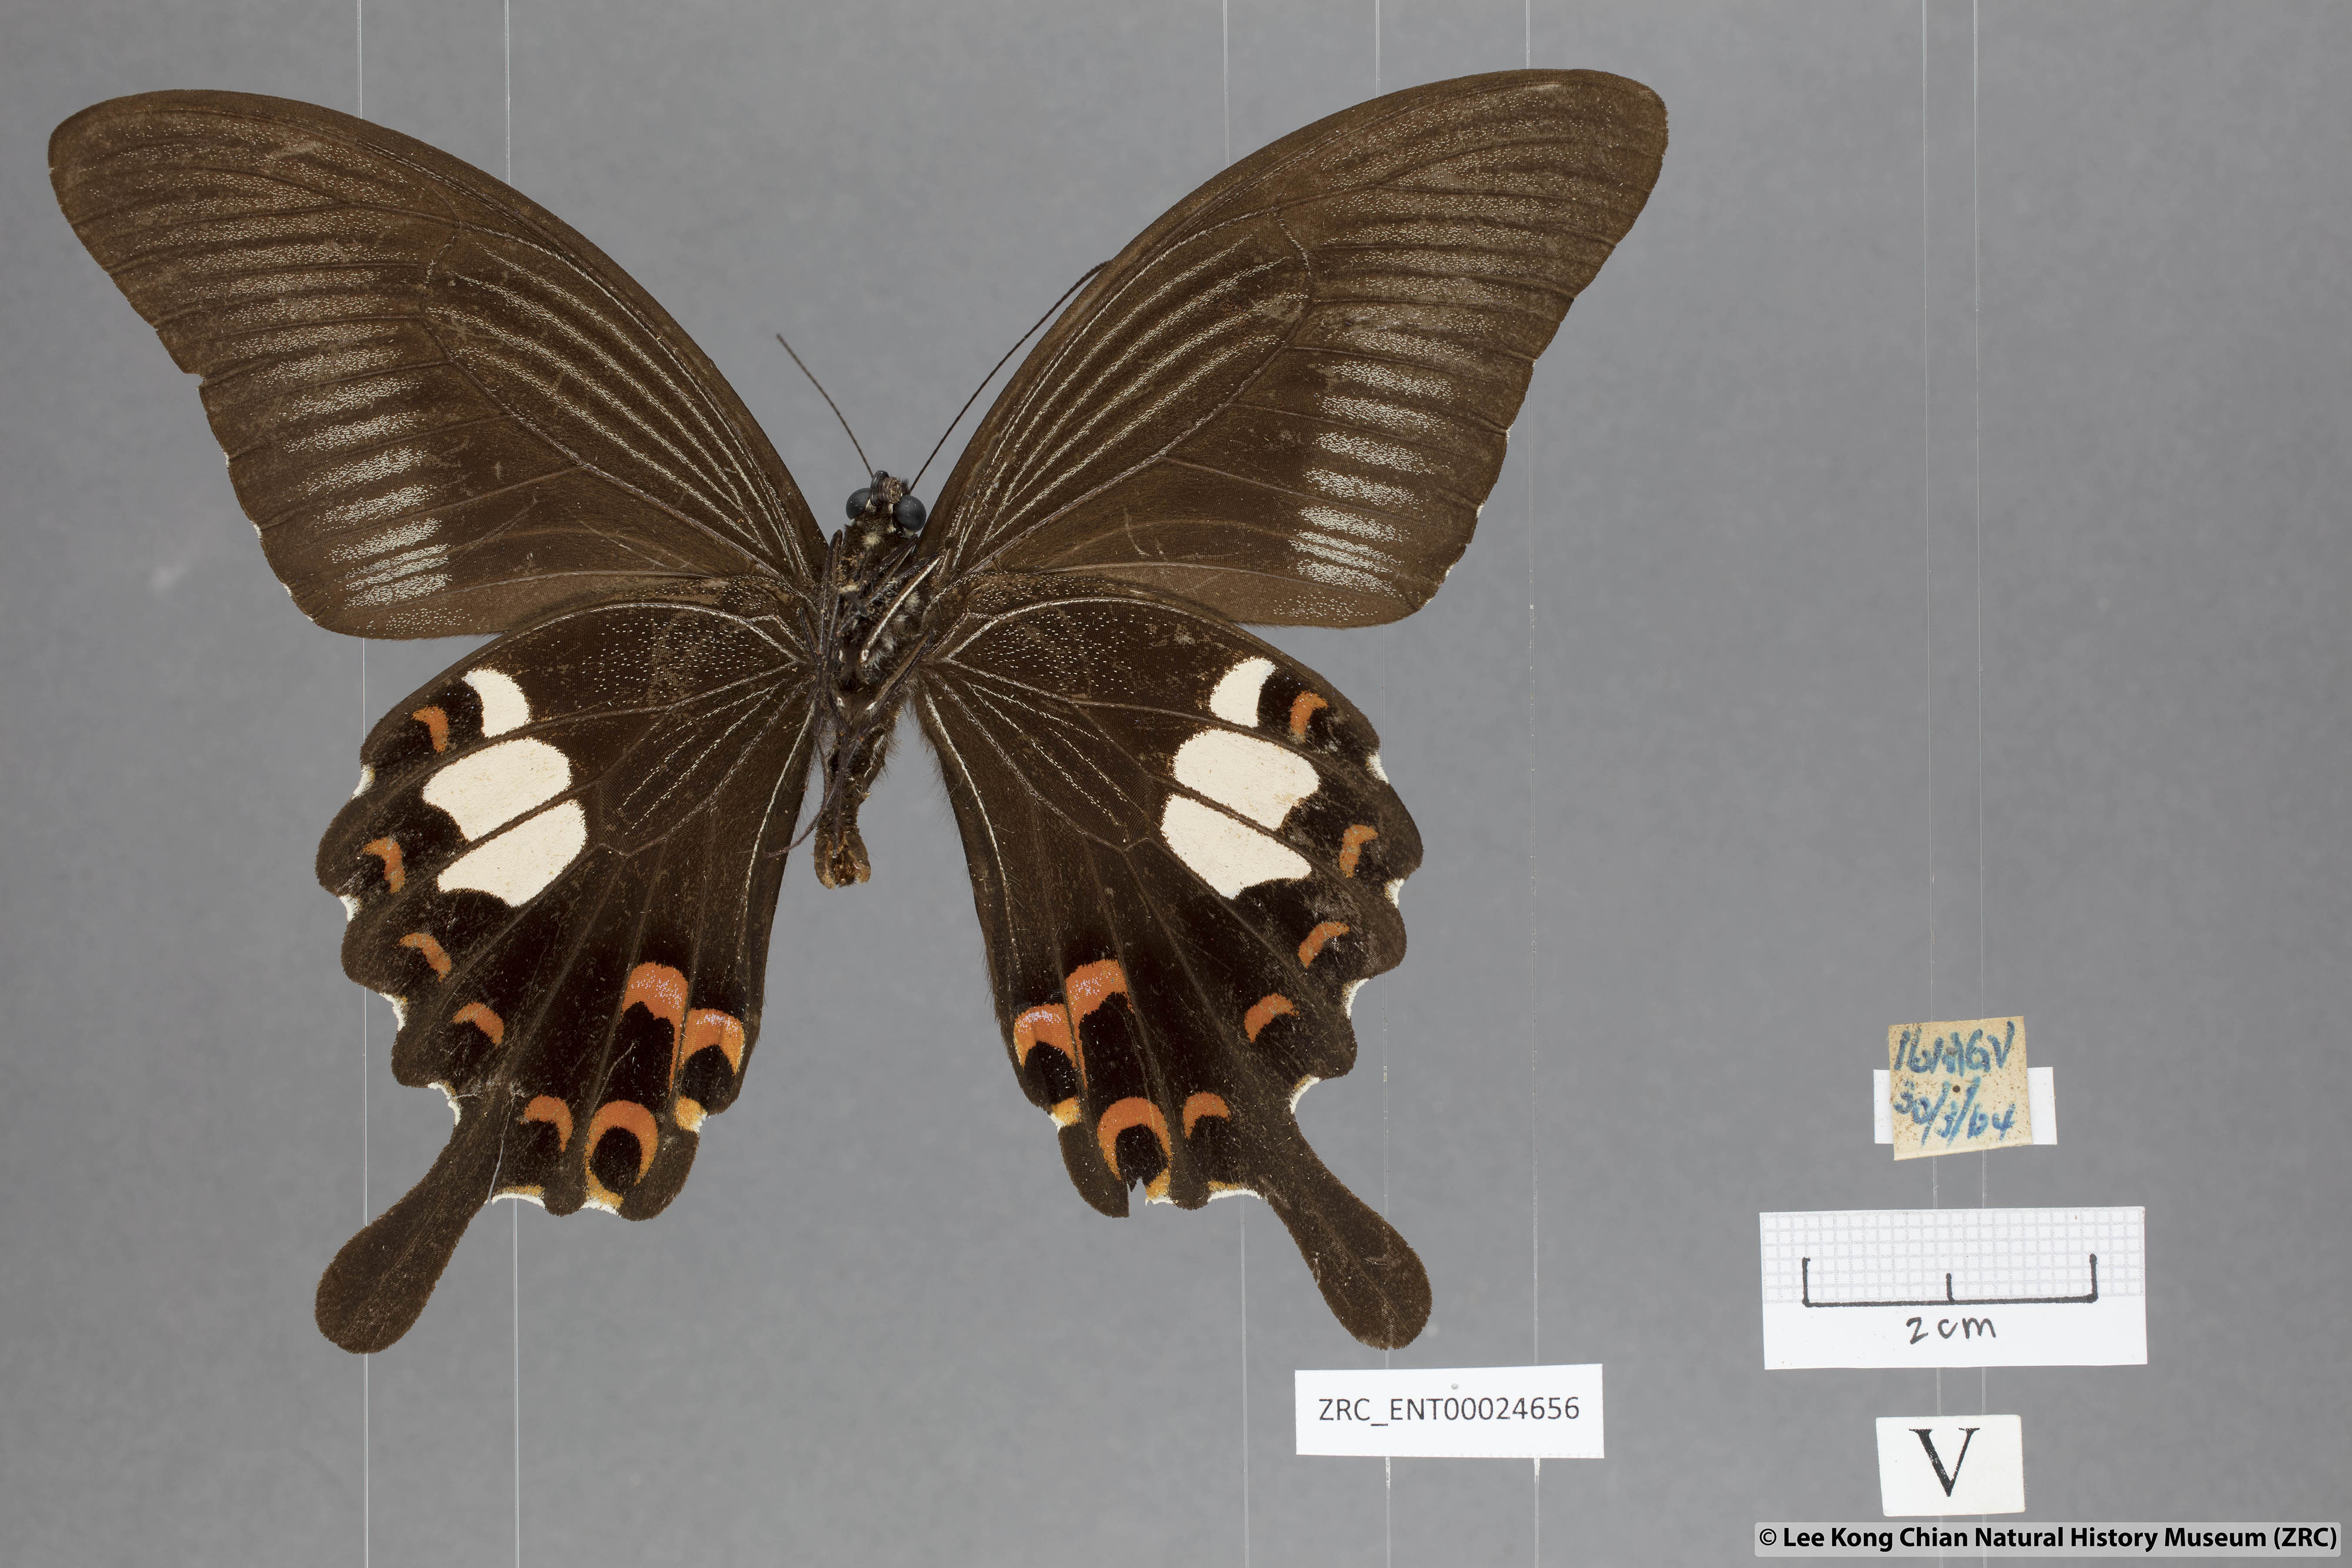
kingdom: Animalia
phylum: Arthropoda
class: Insecta
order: Lepidoptera
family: Papilionidae
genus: Papilio
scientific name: Papilio helenus
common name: Red helen
